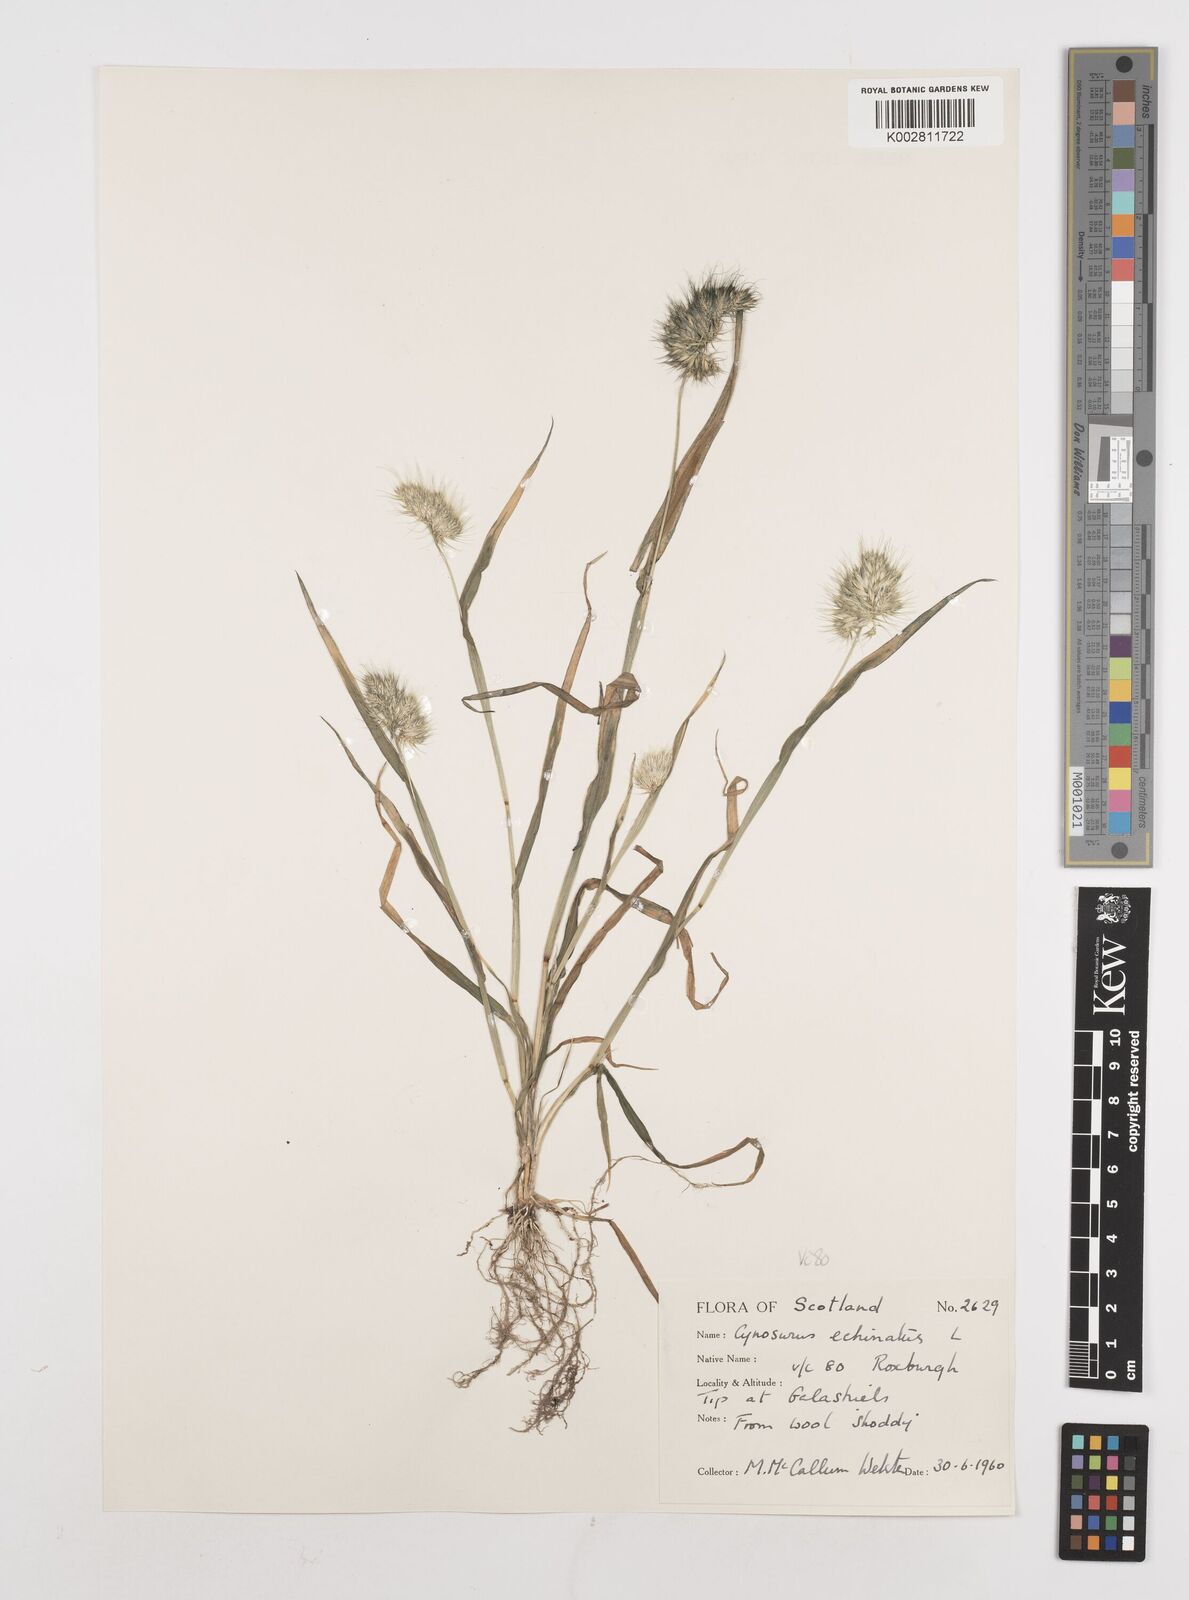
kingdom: Plantae
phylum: Tracheophyta
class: Liliopsida
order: Poales
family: Poaceae
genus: Cynosurus
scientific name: Cynosurus echinatus
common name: Rough dog's-tail
